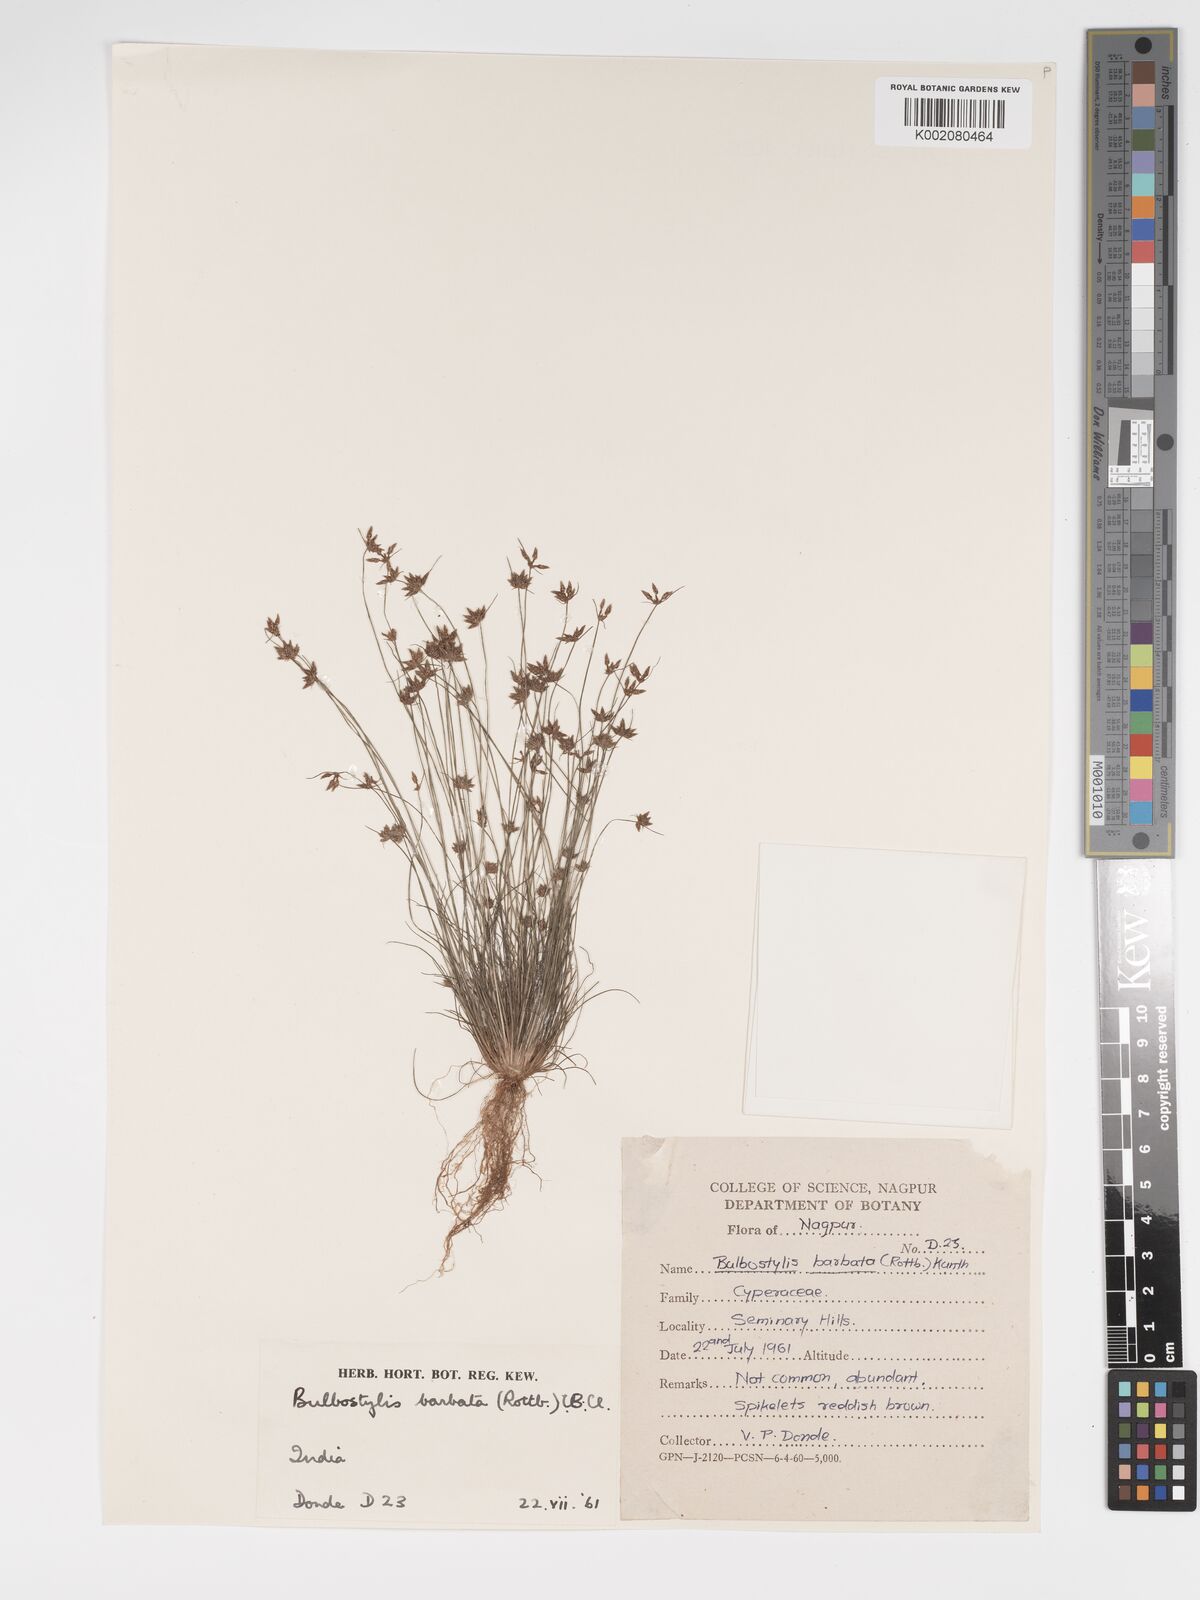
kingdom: Plantae
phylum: Tracheophyta
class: Liliopsida
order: Poales
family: Cyperaceae
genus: Bulbostylis
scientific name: Bulbostylis barbata
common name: Watergrass
